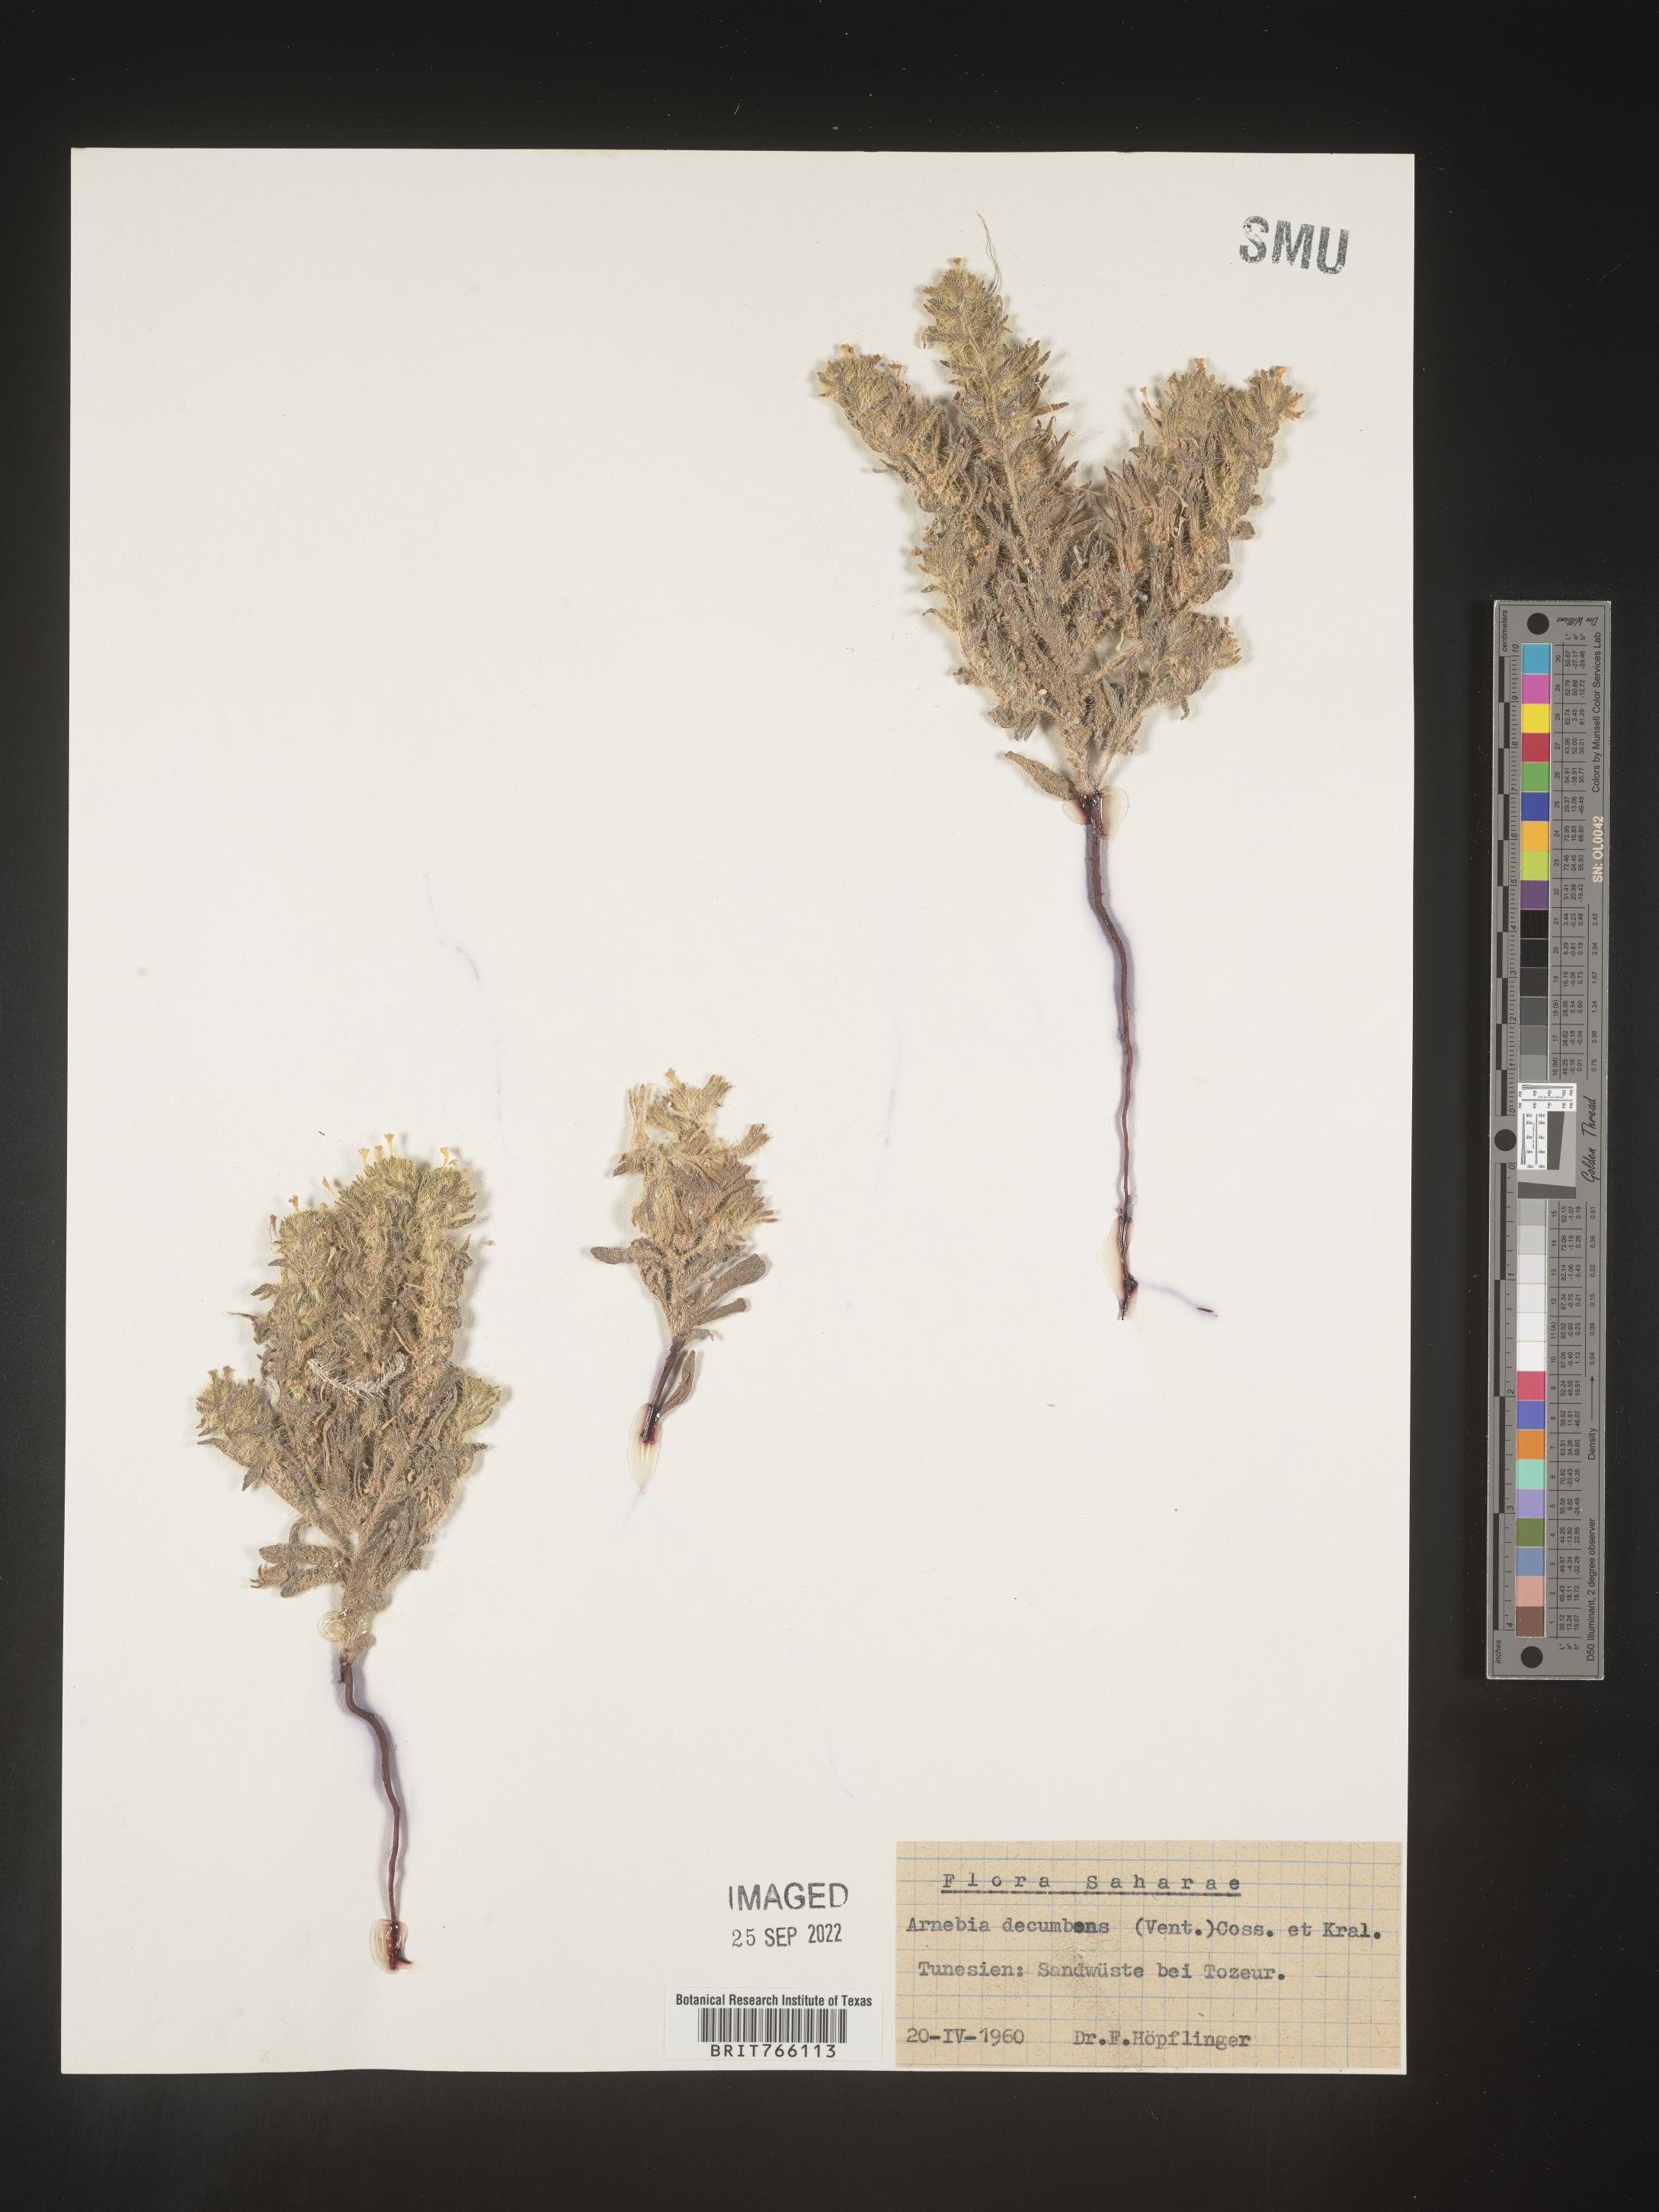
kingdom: Plantae
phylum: Tracheophyta
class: Magnoliopsida
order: Boraginales
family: Heliotropiaceae
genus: Tournefortia
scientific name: Tournefortia
